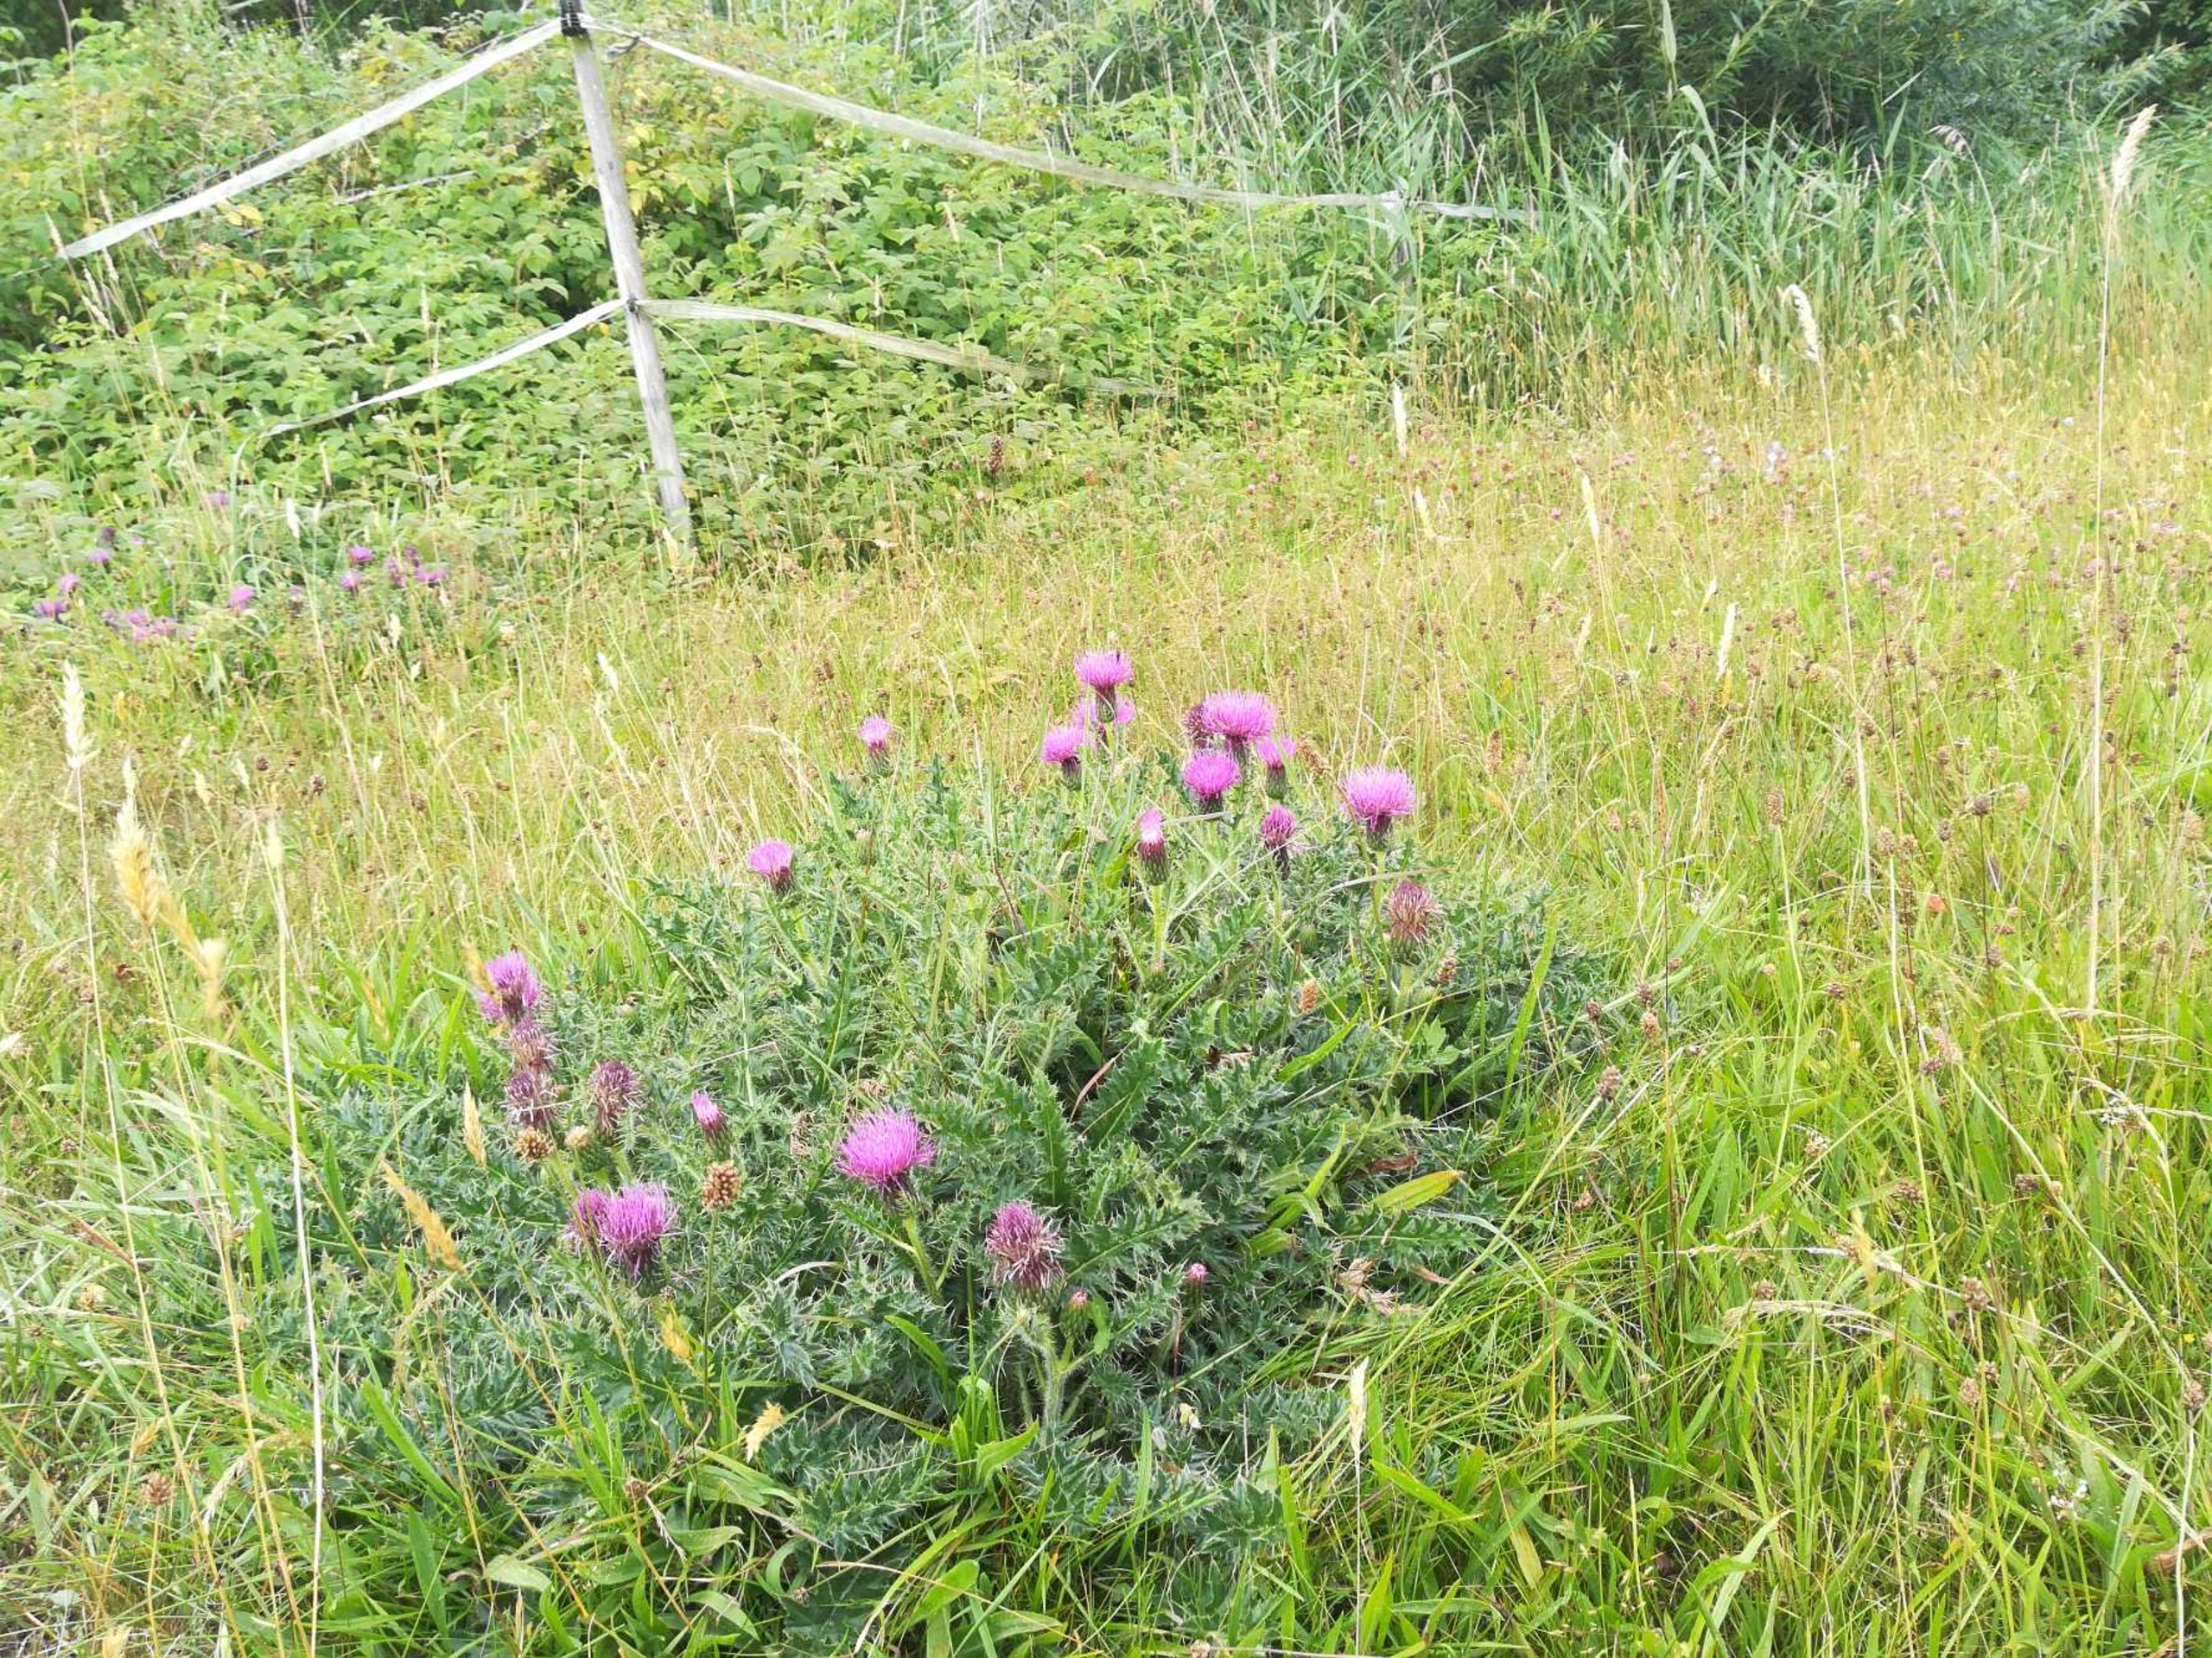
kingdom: Plantae
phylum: Tracheophyta
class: Magnoliopsida
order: Asterales
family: Asteraceae
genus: Cirsium
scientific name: Cirsium acaule
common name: Lav tidsel
